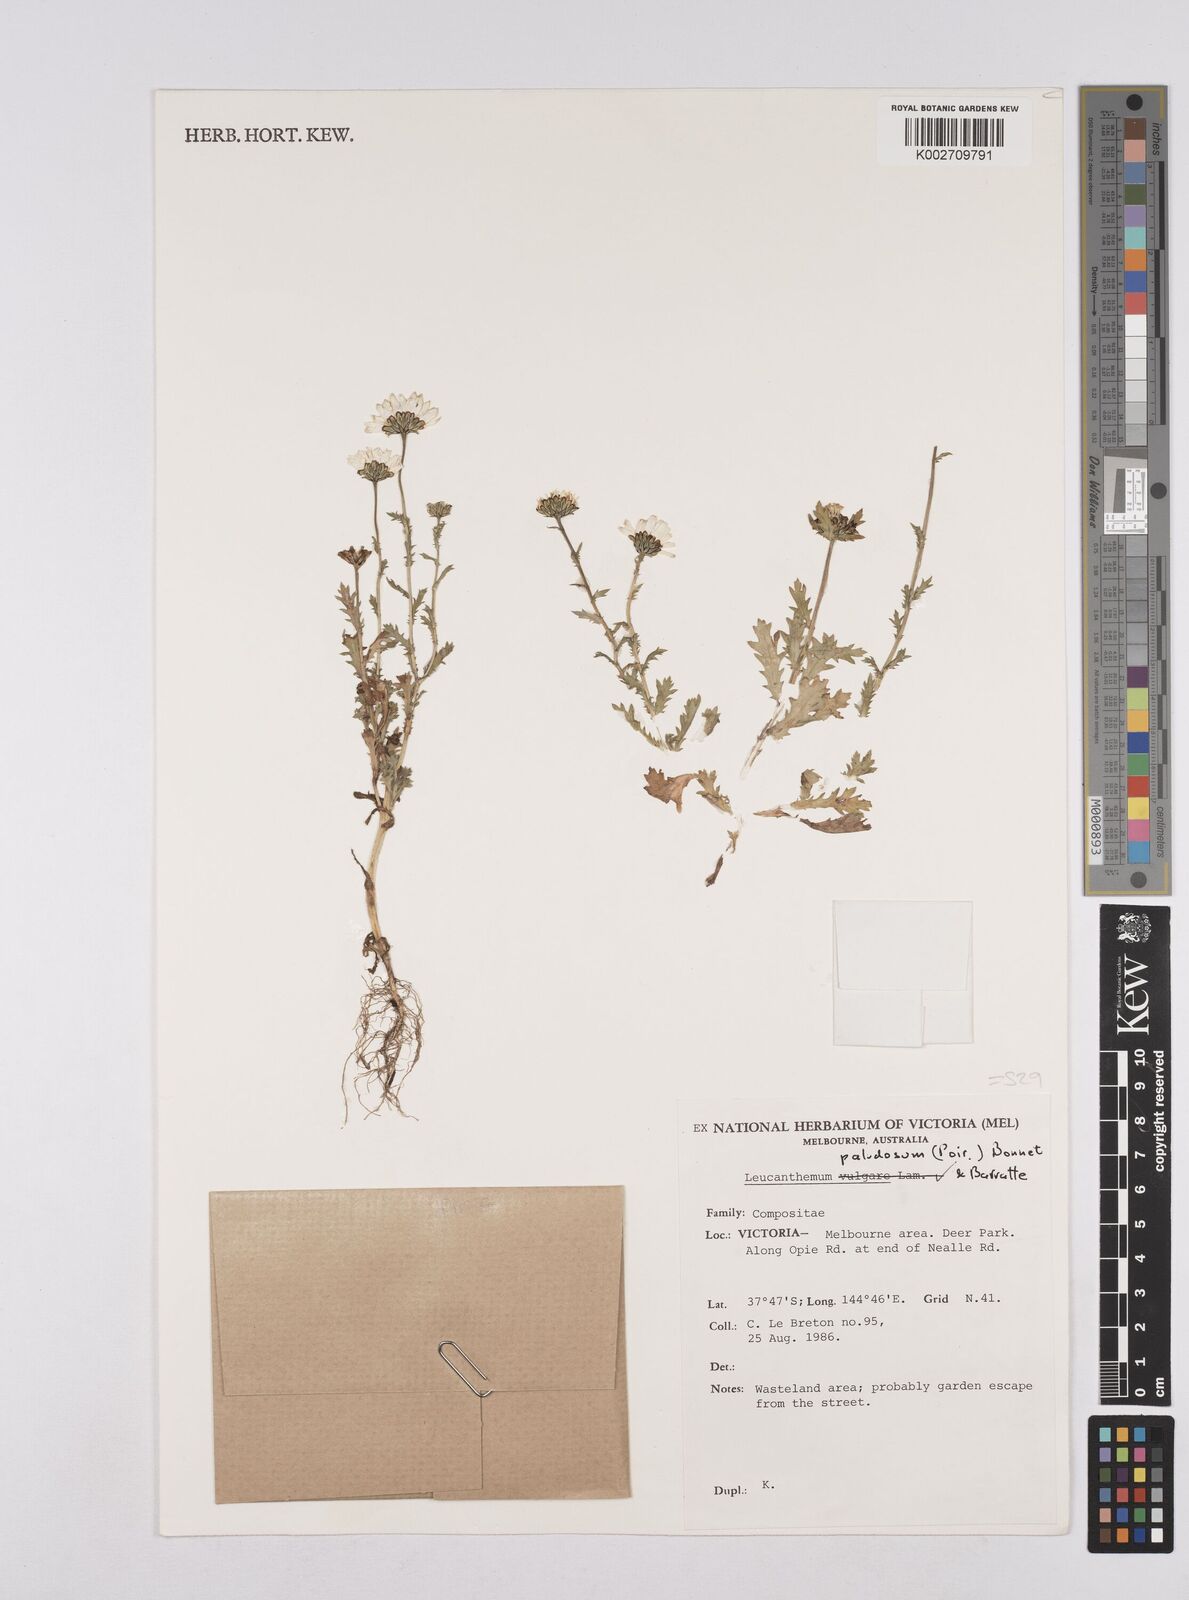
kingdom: Plantae
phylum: Tracheophyta
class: Magnoliopsida
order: Asterales
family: Asteraceae
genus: Mauranthemum
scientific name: Mauranthemum paludosum
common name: Sunflower
